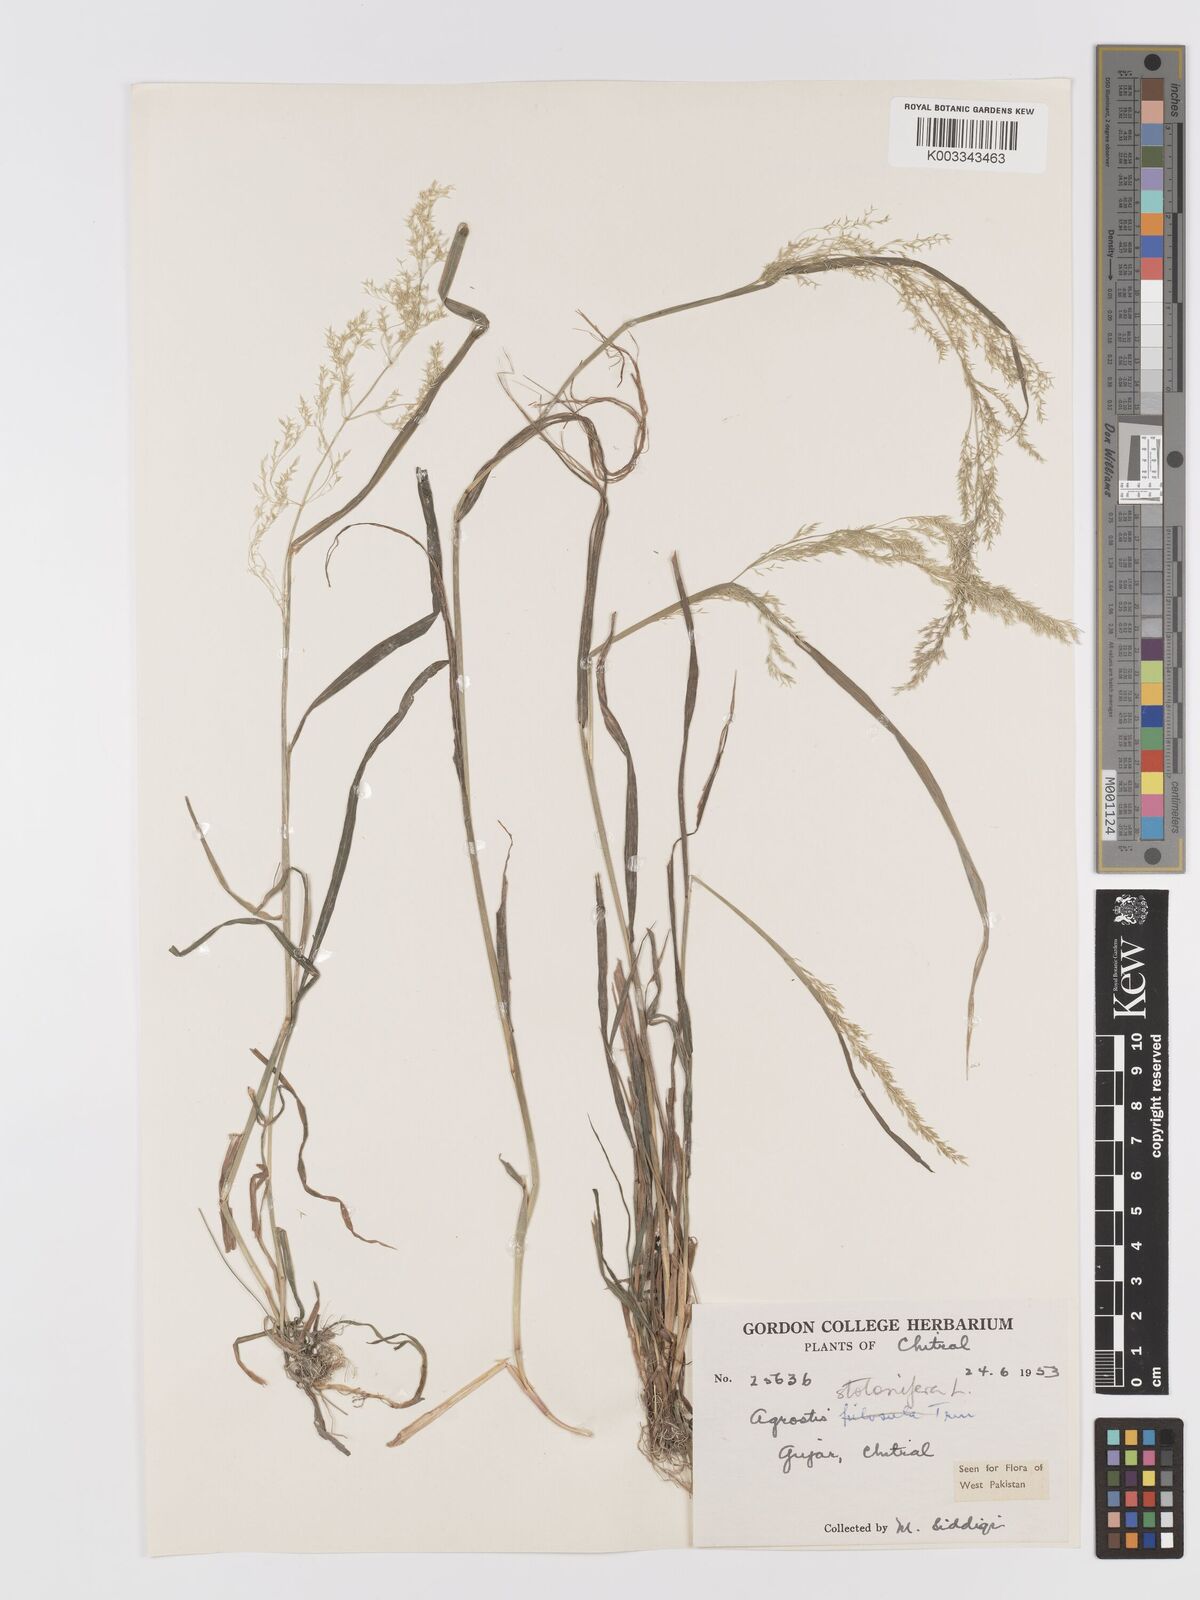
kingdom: Plantae
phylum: Tracheophyta
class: Liliopsida
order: Poales
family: Poaceae
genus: Agrostis
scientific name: Agrostis stolonifera
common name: Creeping bentgrass
